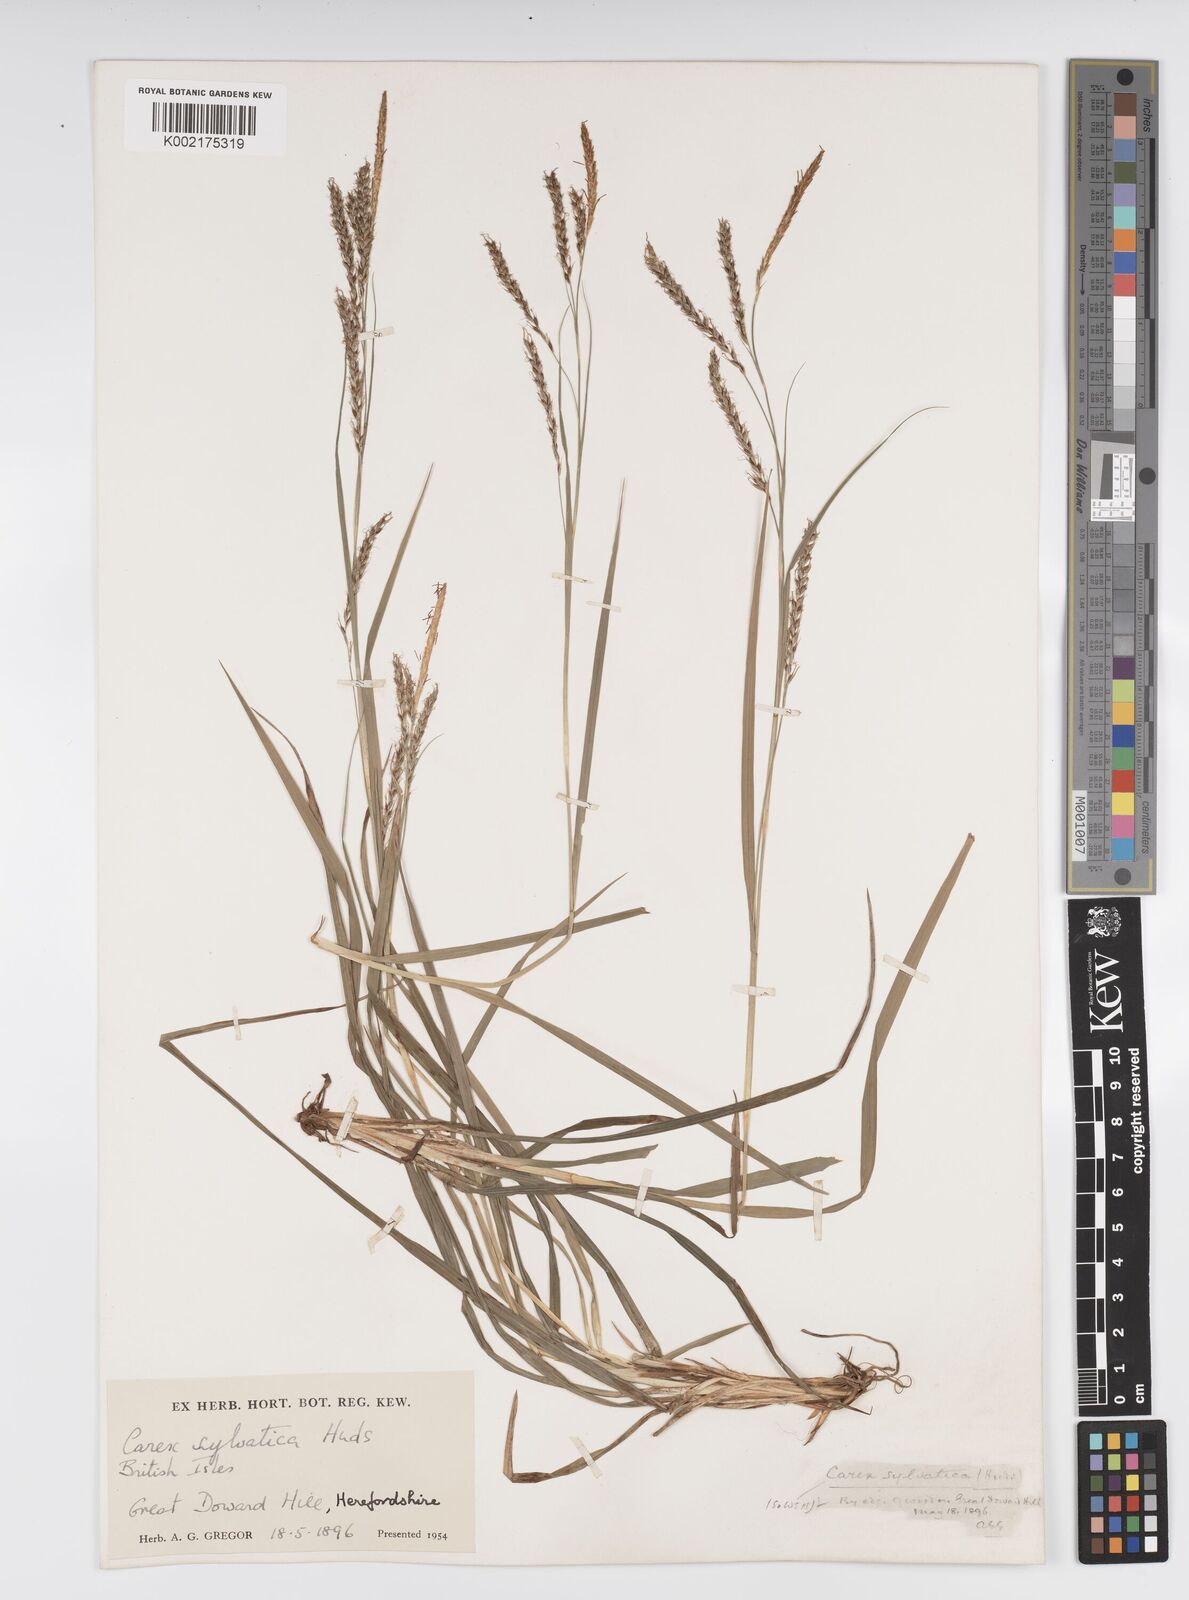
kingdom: Plantae
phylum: Tracheophyta
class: Liliopsida
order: Poales
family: Cyperaceae
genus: Carex
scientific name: Carex sylvatica
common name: Wood-sedge
